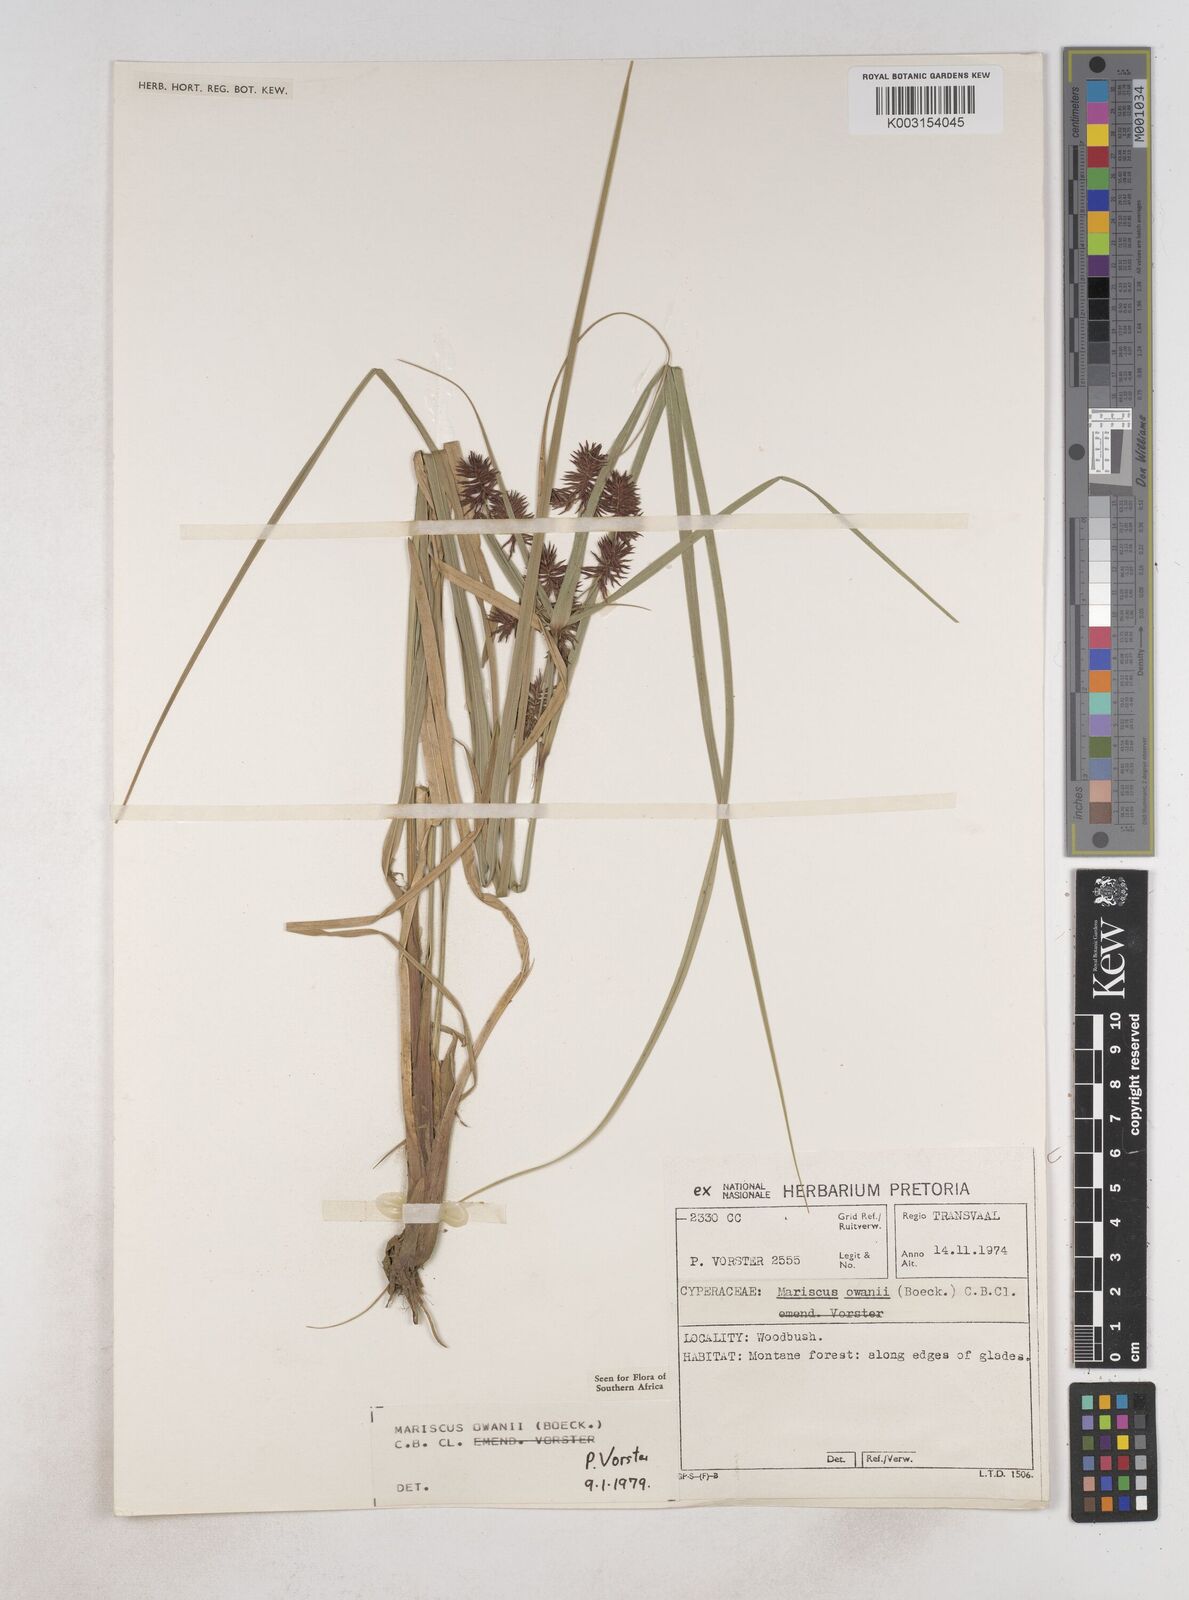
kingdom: Plantae
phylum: Tracheophyta
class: Liliopsida
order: Poales
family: Cyperaceae
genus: Cyperus
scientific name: Cyperus owanii
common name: Owan's flatsedge
